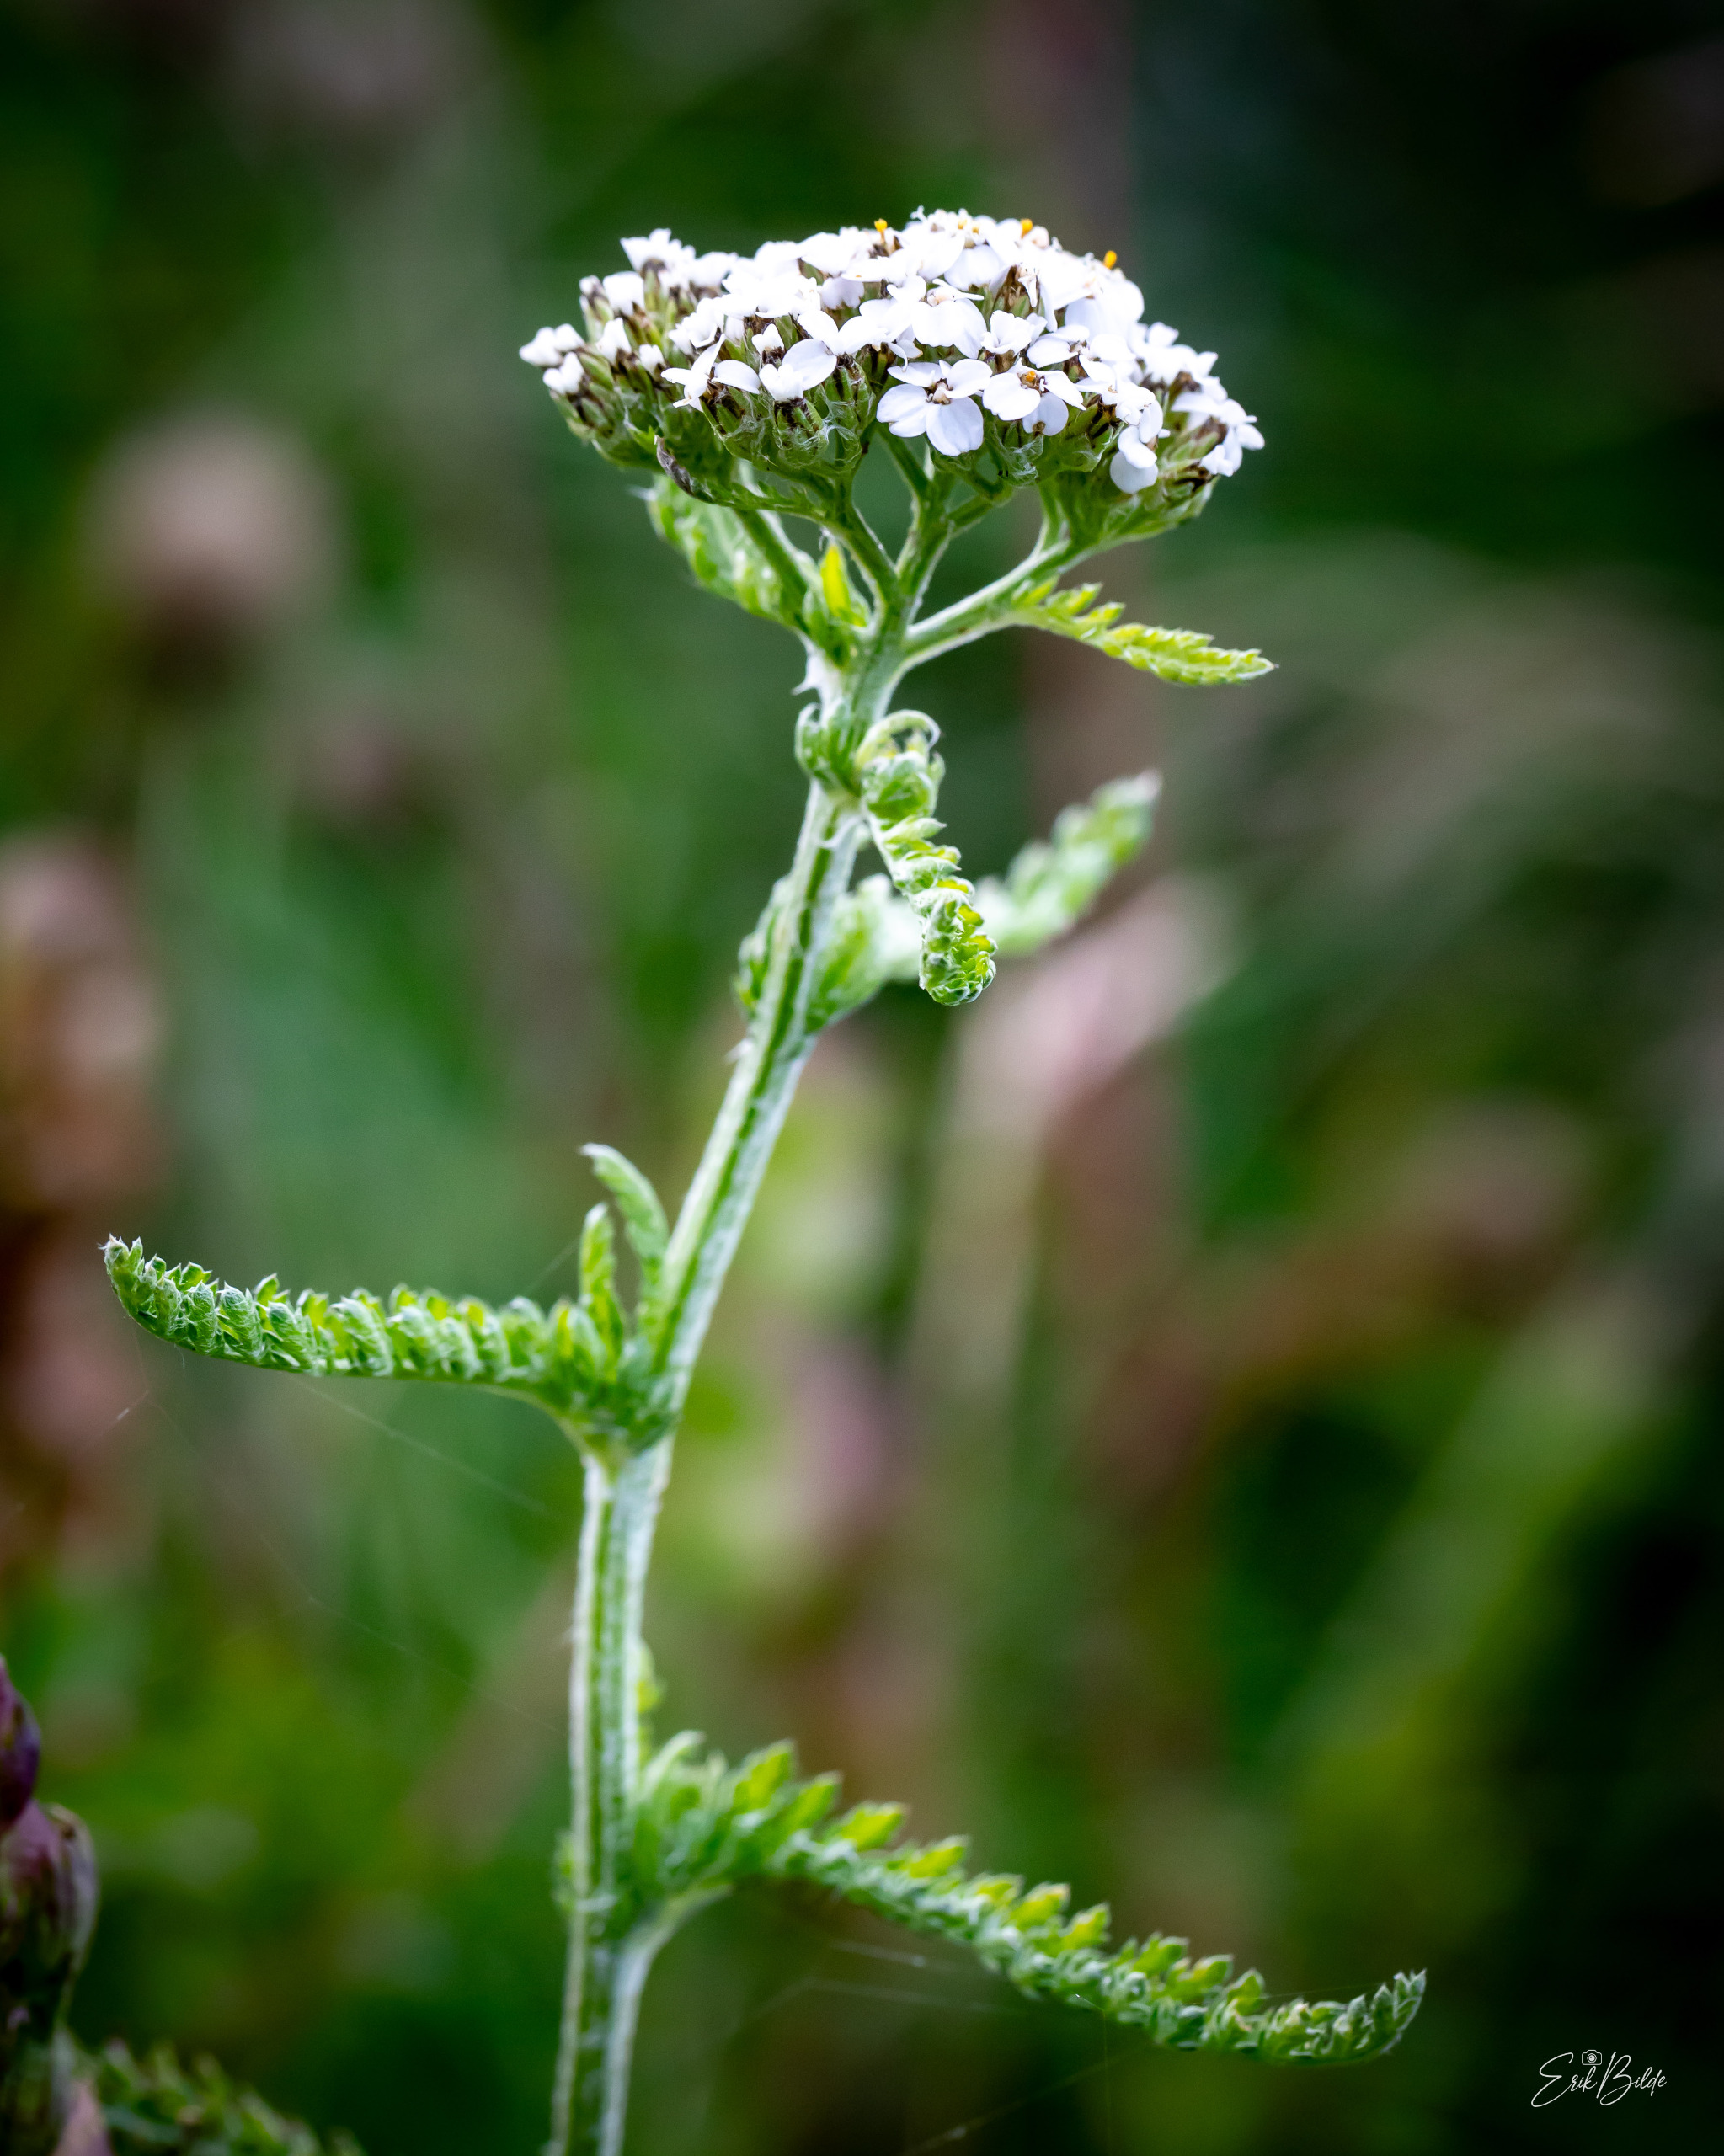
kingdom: Plantae
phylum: Tracheophyta
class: Magnoliopsida
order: Asterales
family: Asteraceae
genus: Achillea
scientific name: Achillea millefolium
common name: Almindelig røllike
